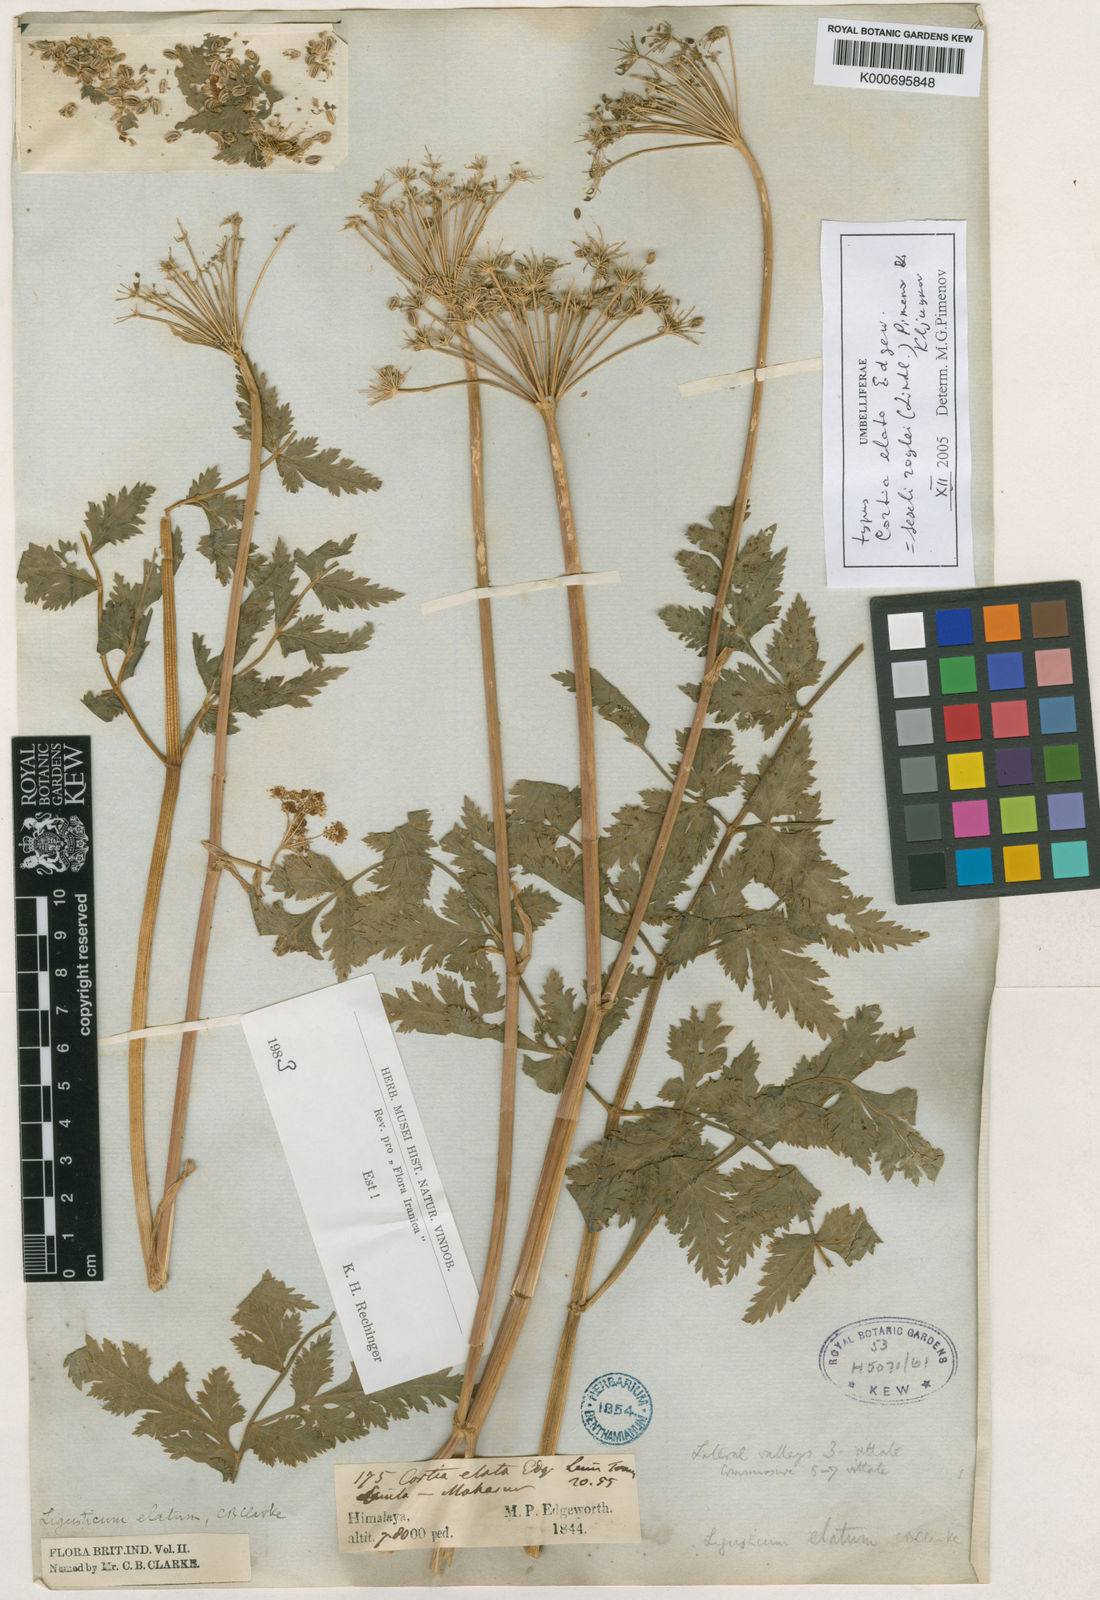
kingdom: Plantae
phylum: Tracheophyta
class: Magnoliopsida
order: Apiales
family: Apiaceae
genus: Oreocome
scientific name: Oreocome arguta
